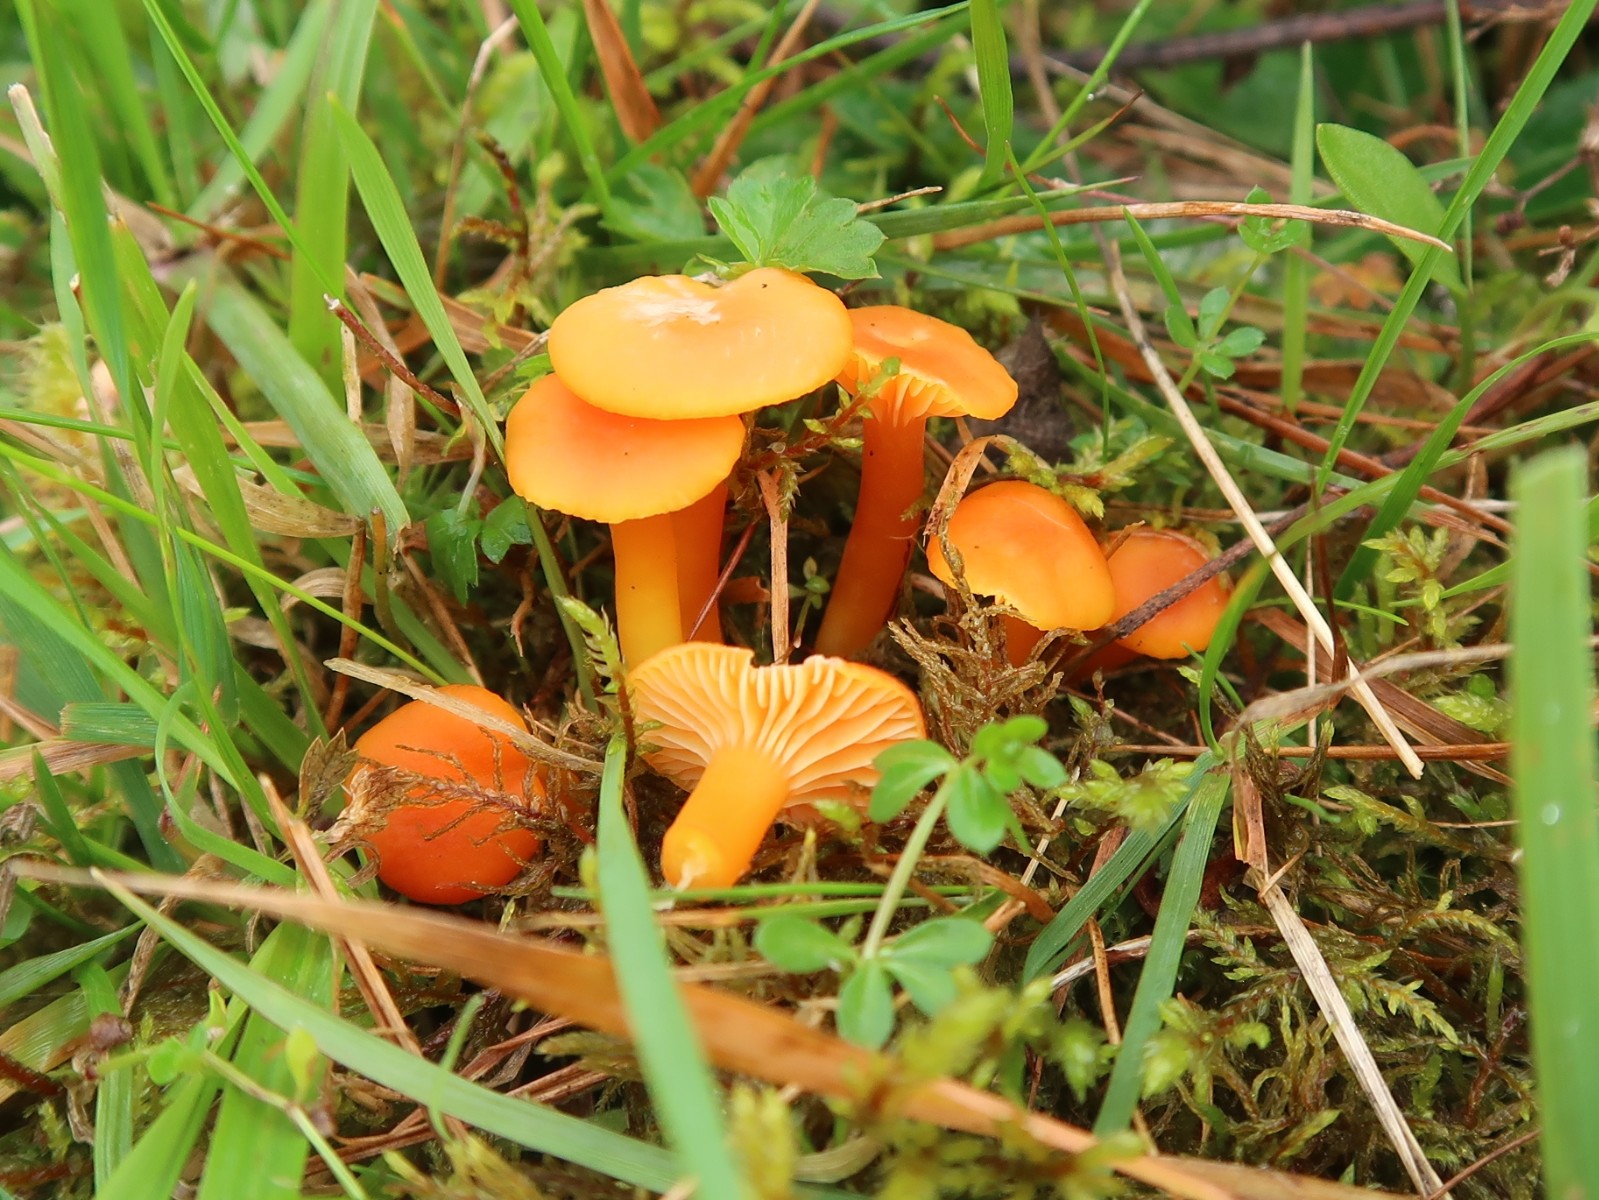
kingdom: Fungi
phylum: Basidiomycota
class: Agaricomycetes
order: Agaricales
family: Hygrophoraceae
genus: Hygrocybe
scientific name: Hygrocybe reidii
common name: honning-vokshat
